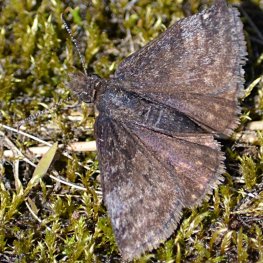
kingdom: Animalia
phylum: Arthropoda
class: Insecta
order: Lepidoptera
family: Hesperiidae
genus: Erynnis
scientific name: Erynnis icelus
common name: Dreamy Duskywing
